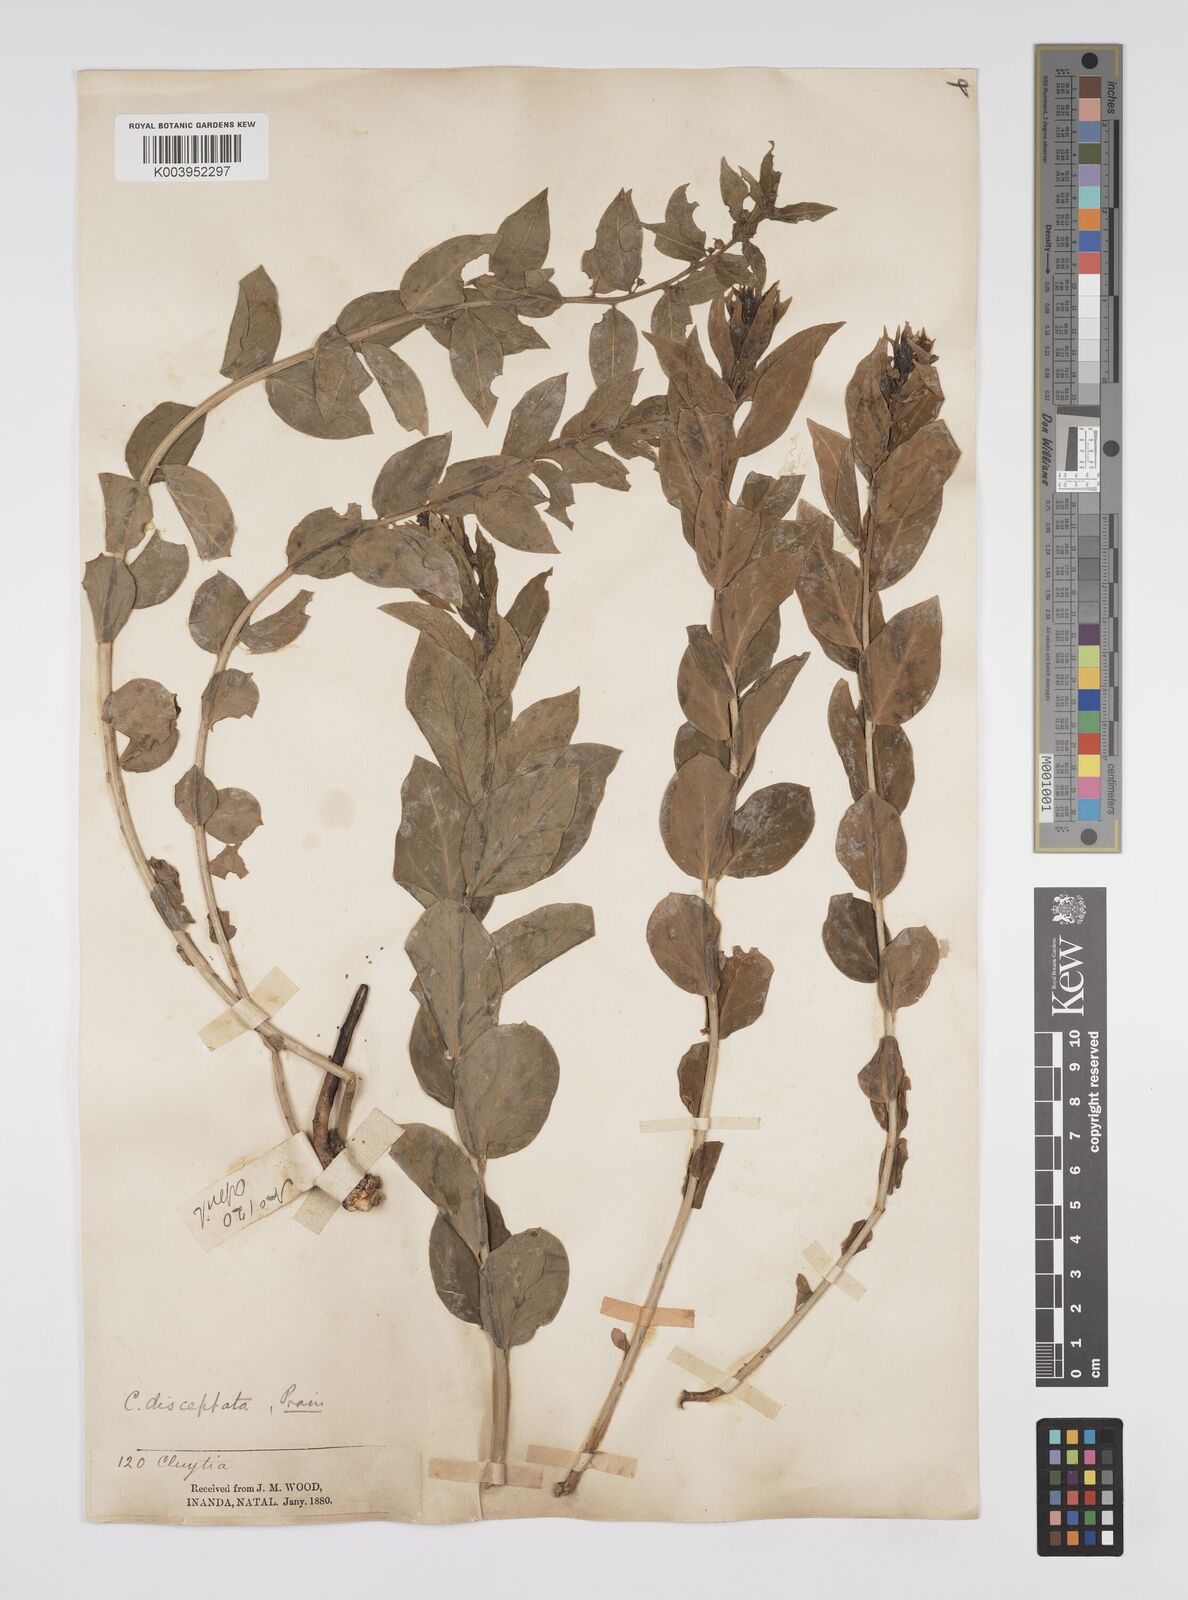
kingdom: Plantae
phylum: Tracheophyta
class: Magnoliopsida
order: Malpighiales
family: Peraceae
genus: Clutia
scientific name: Clutia disceptata
